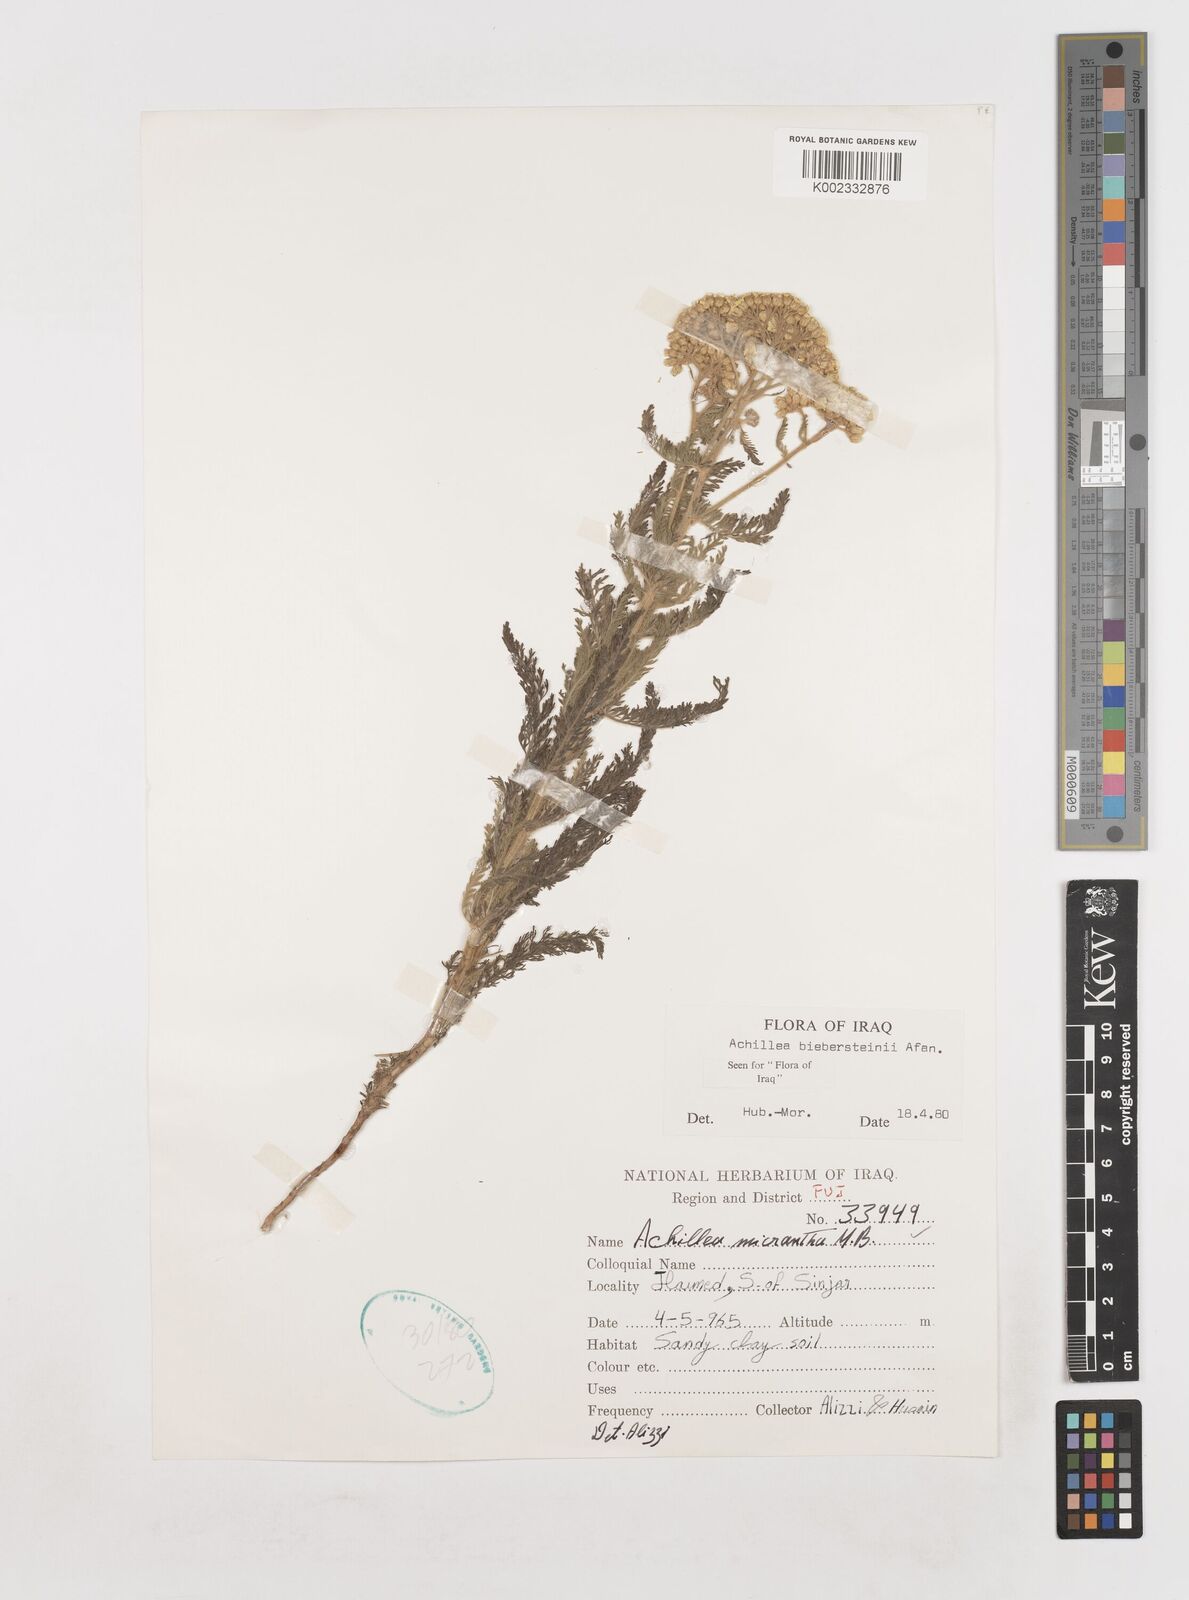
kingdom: Plantae
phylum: Tracheophyta
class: Magnoliopsida
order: Asterales
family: Asteraceae
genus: Achillea
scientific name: Achillea arabica
